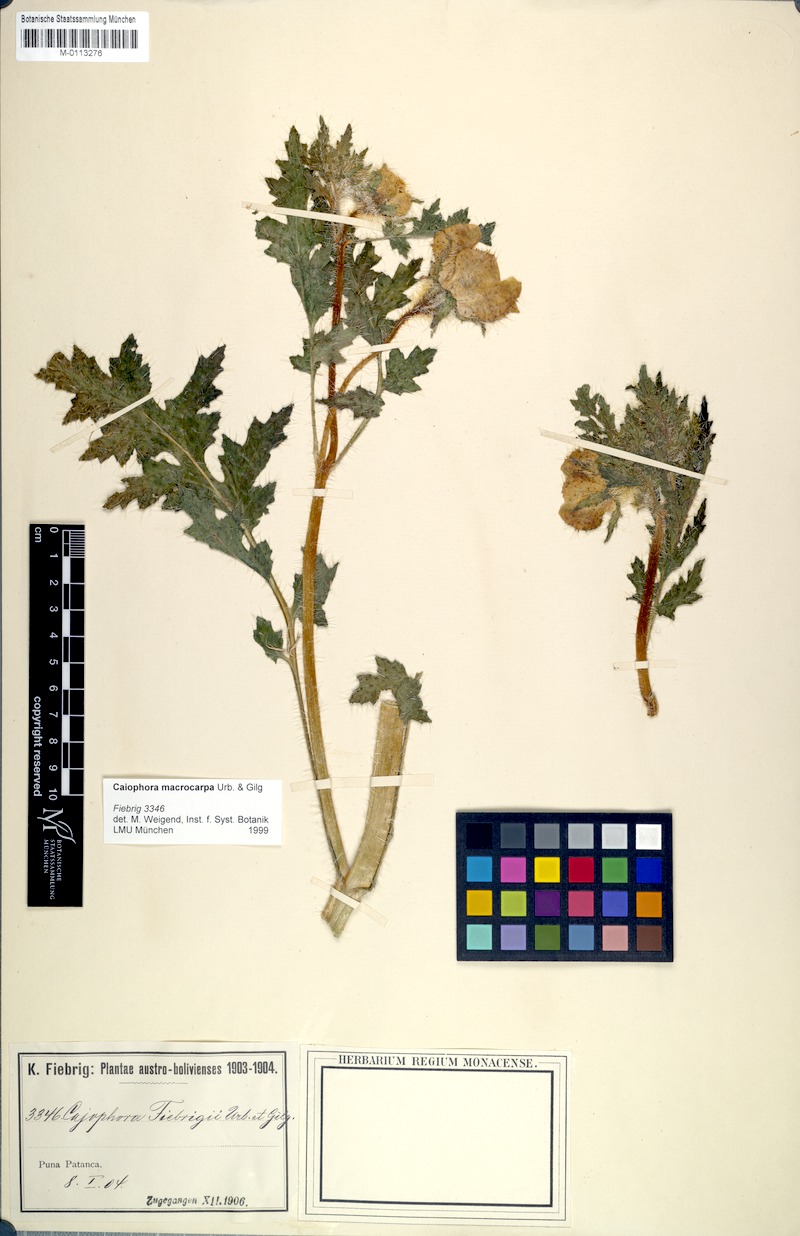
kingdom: Plantae
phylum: Tracheophyta
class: Magnoliopsida
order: Cornales
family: Loasaceae
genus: Caiophora
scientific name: Caiophora chuquitensis
